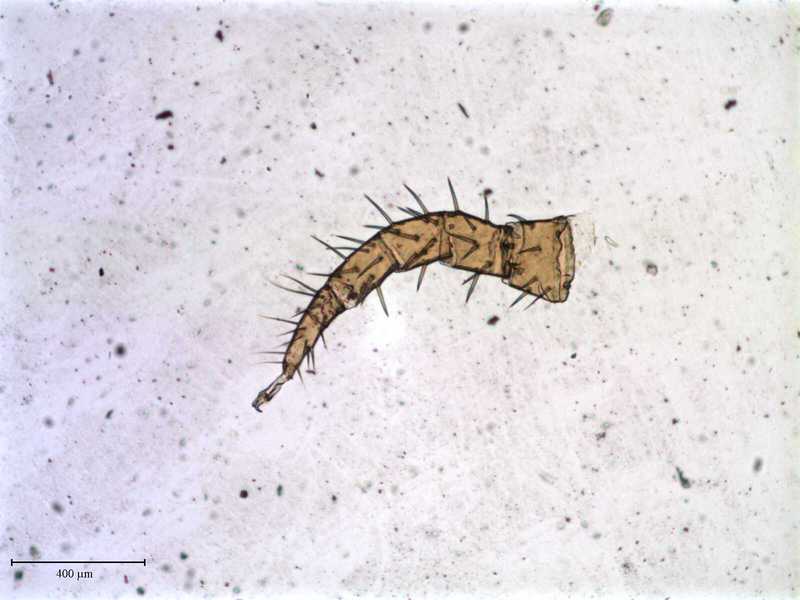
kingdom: Animalia
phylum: Arthropoda
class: Arachnida
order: Mesostigmata
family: Laelapidae
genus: Dinogamasus
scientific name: Dinogamasus
